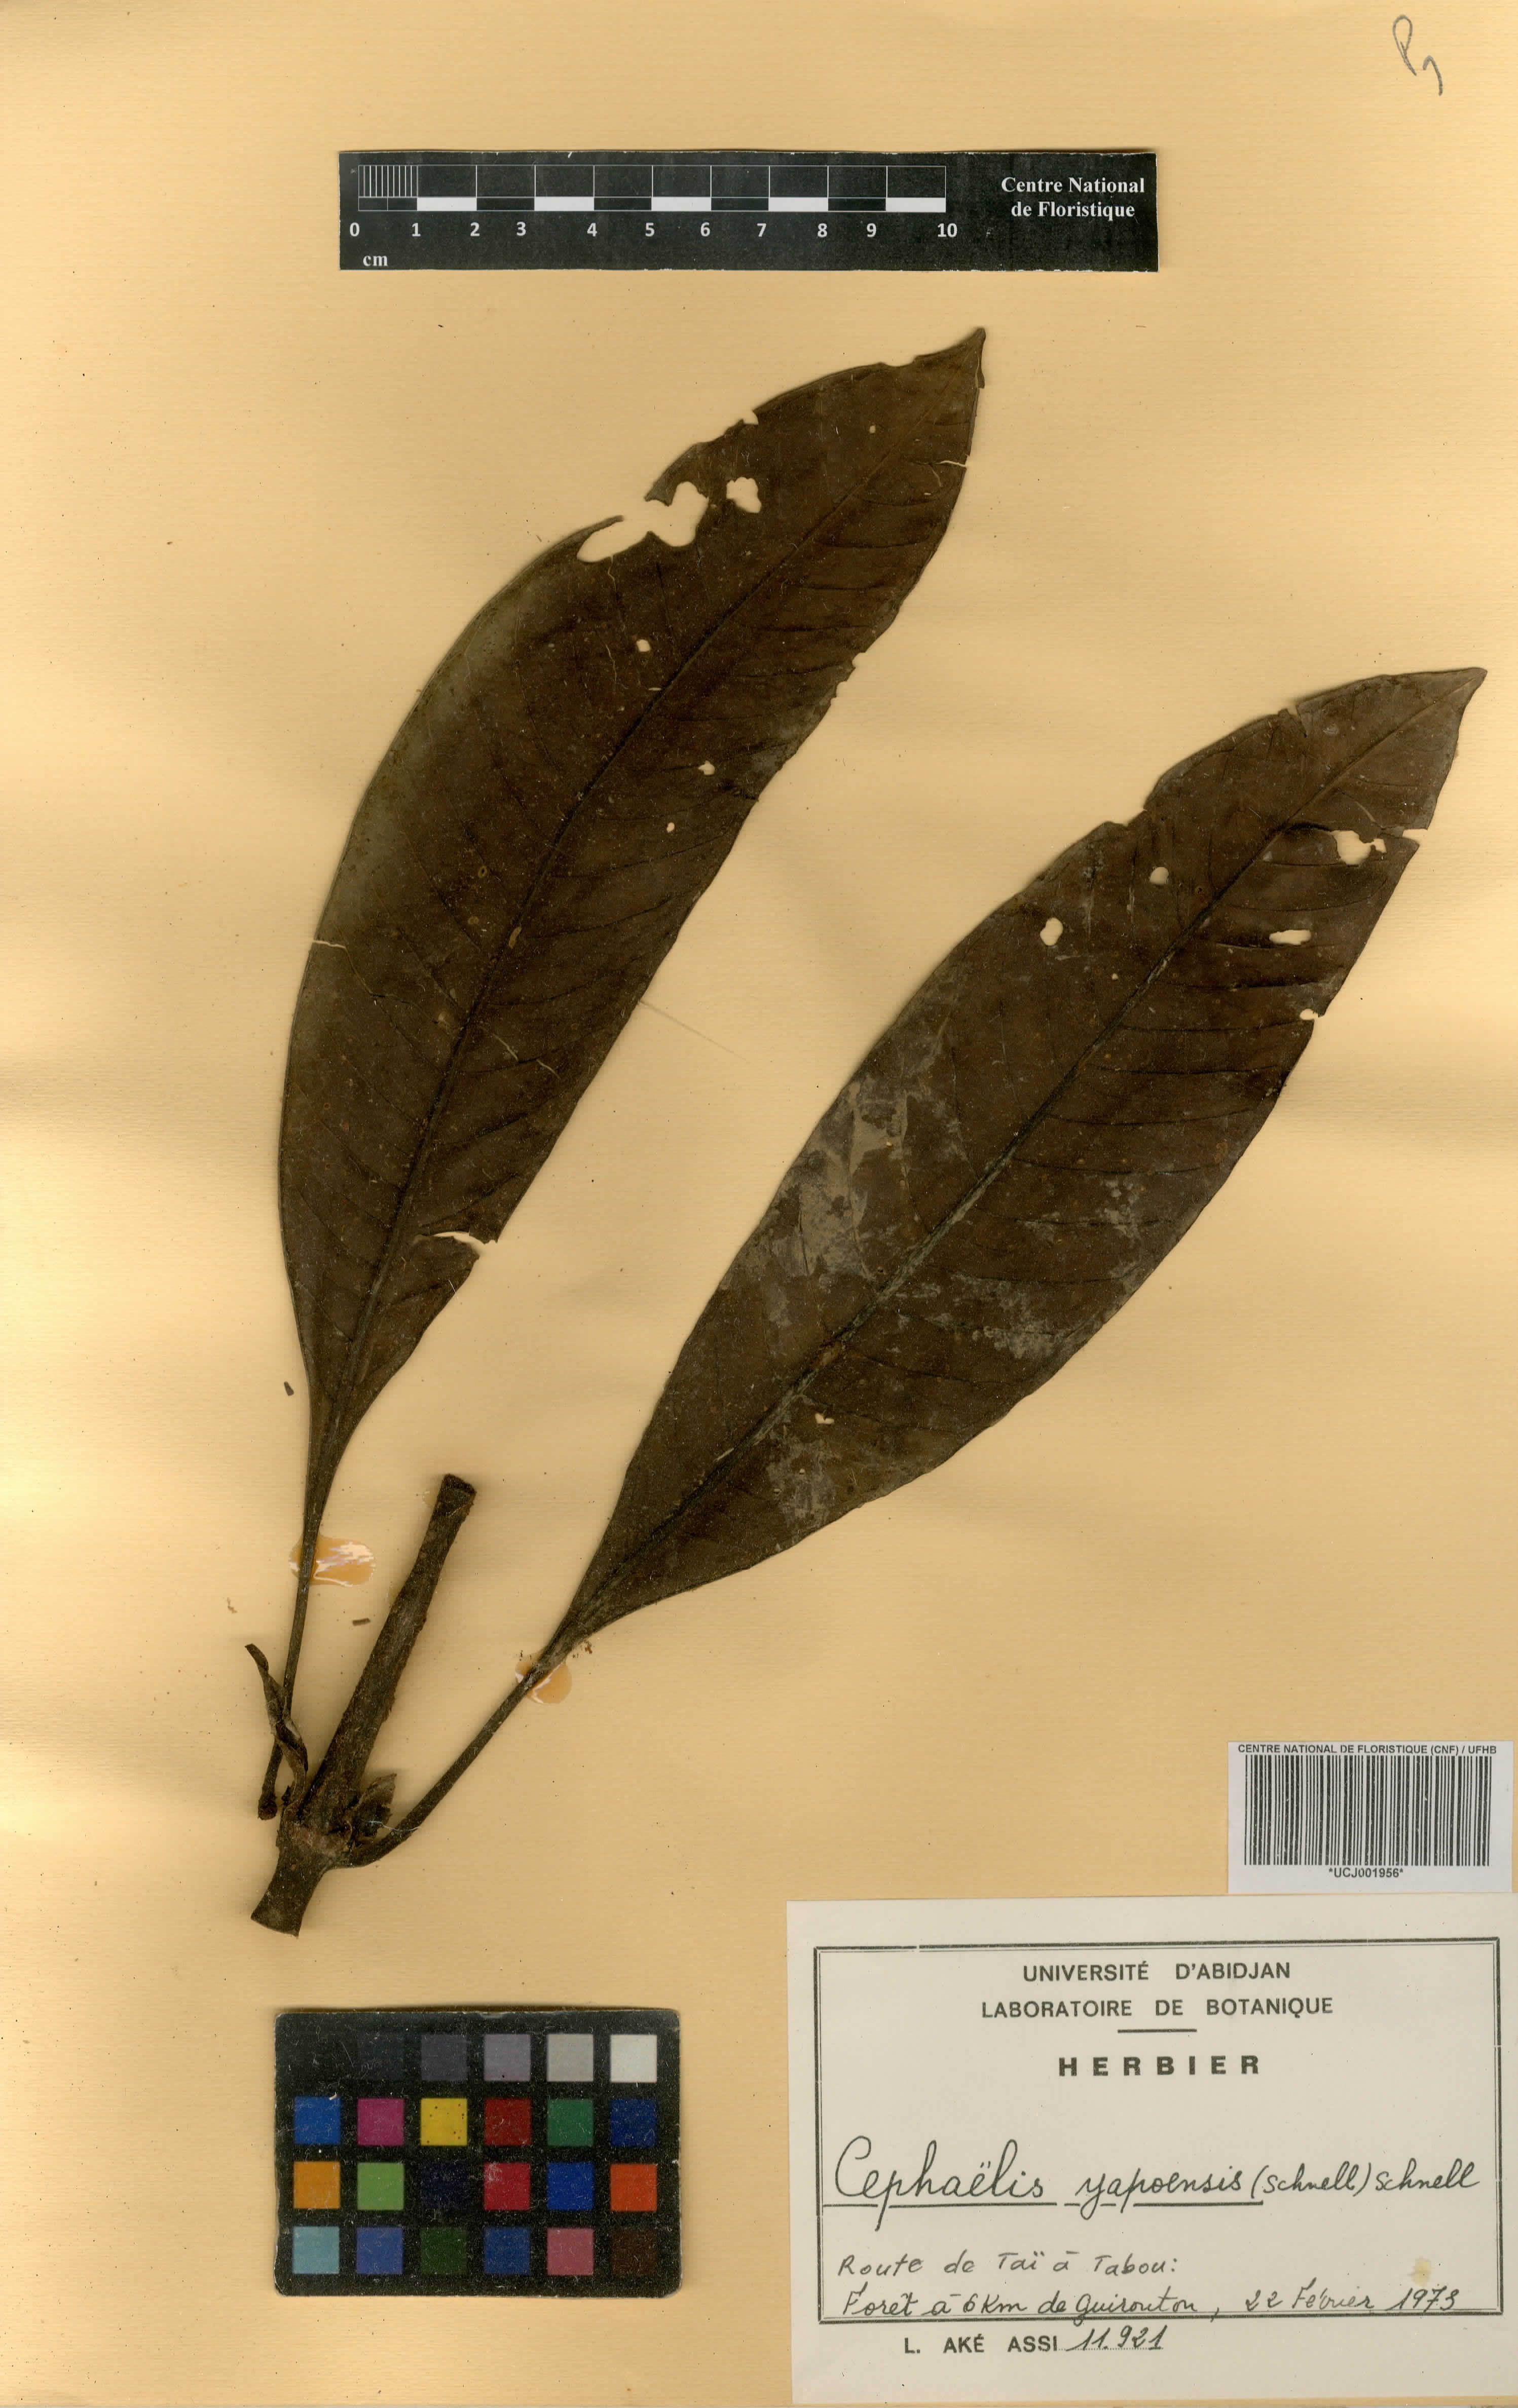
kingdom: Plantae
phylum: Tracheophyta
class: Magnoliopsida
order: Gentianales
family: Rubiaceae
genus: Psychotria
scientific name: Psychotria yapoensis
